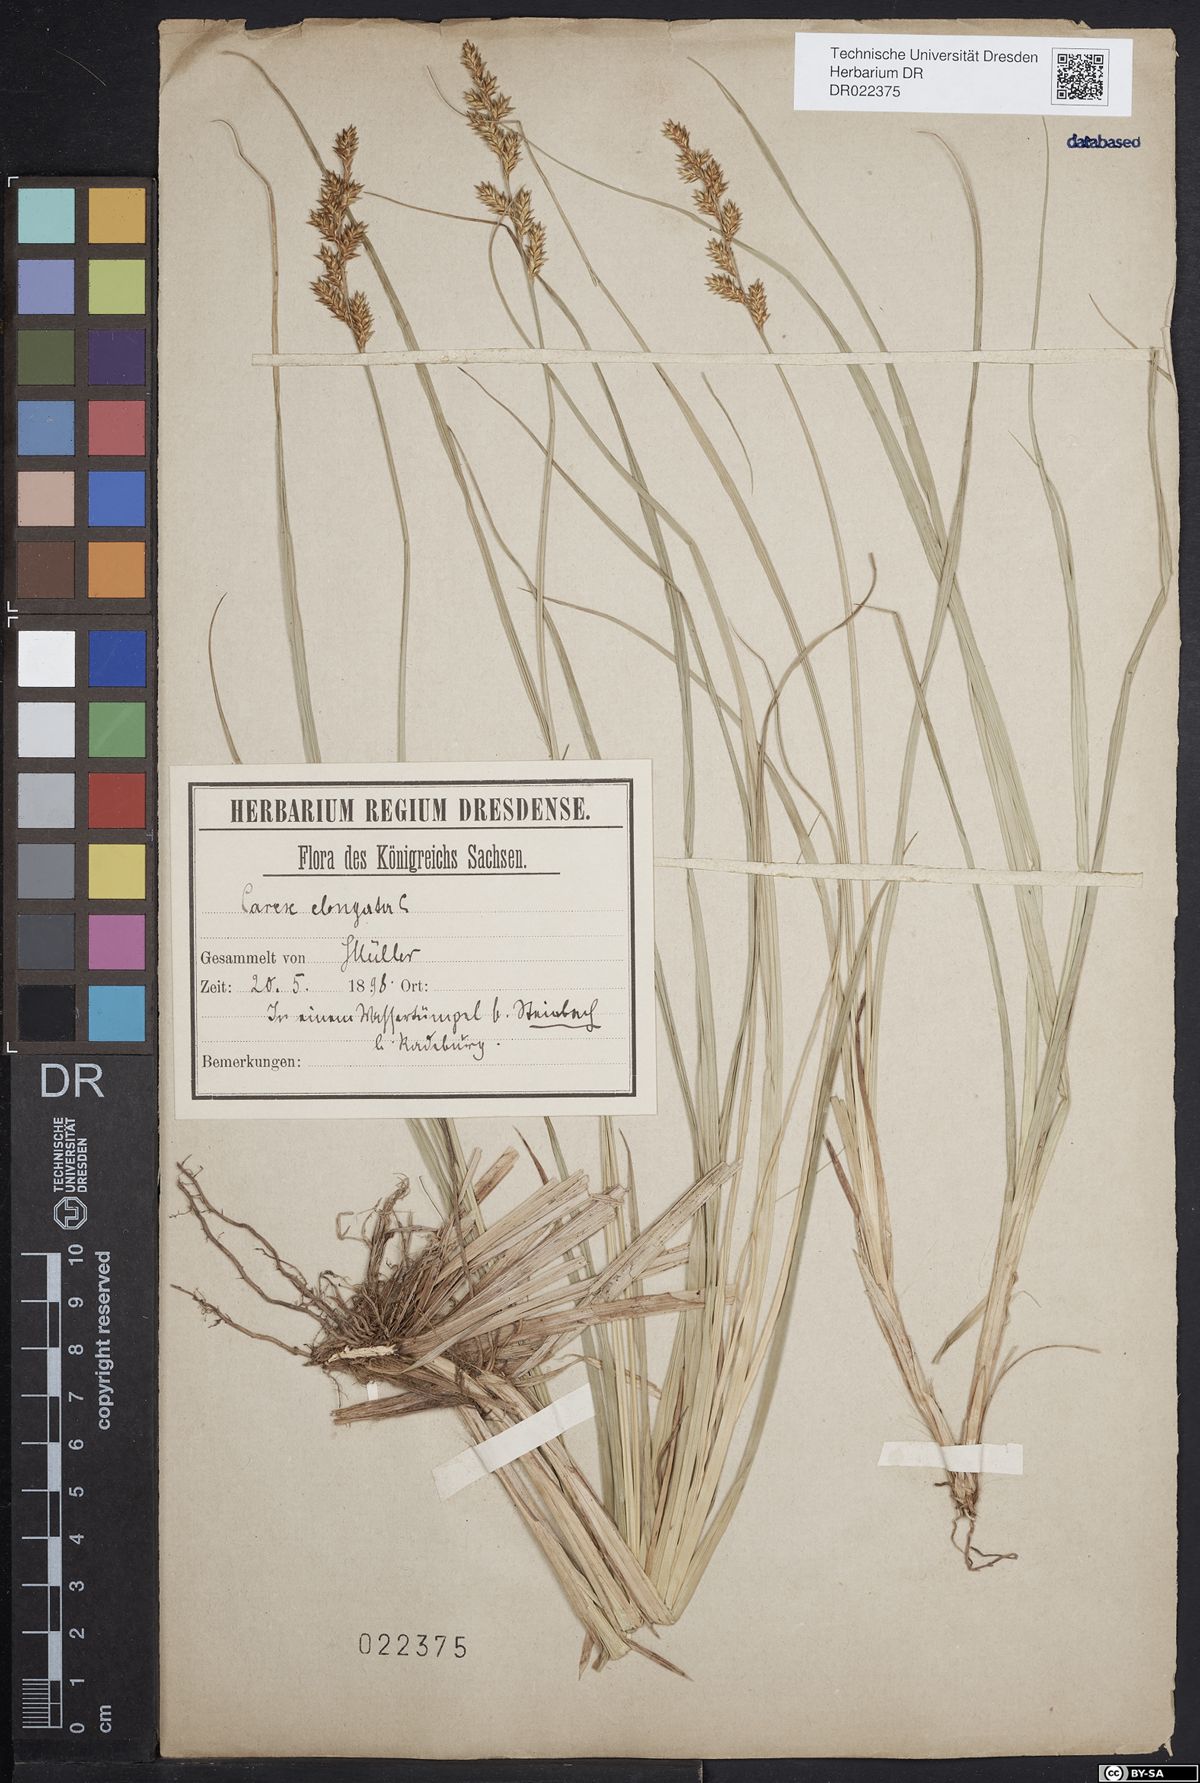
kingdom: Plantae
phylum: Tracheophyta
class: Liliopsida
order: Poales
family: Cyperaceae
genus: Carex
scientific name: Carex elongata
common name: Elongated sedge
